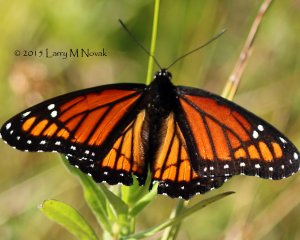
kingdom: Animalia
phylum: Arthropoda
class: Insecta
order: Lepidoptera
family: Nymphalidae
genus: Limenitis
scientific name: Limenitis archippus
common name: Viceroy
